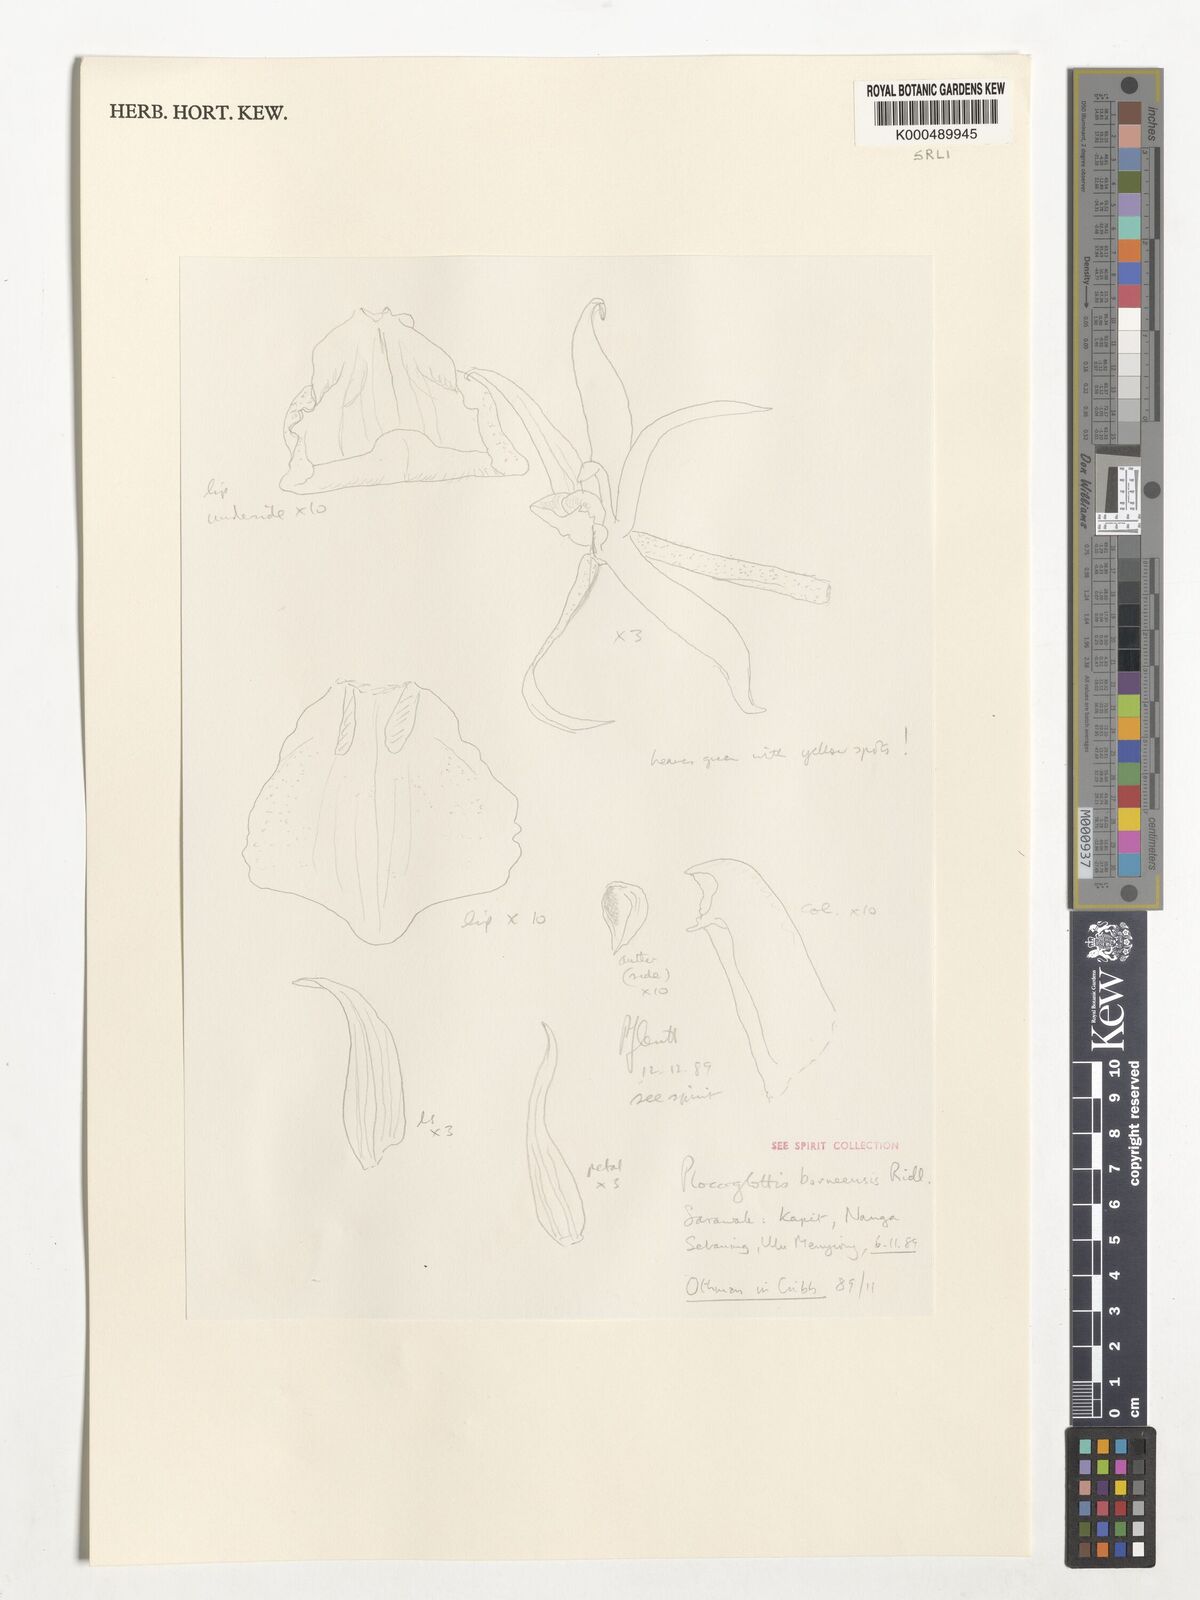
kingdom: Plantae
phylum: Tracheophyta
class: Liliopsida
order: Asparagales
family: Orchidaceae
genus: Plocoglottis
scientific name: Plocoglottis borneensis
